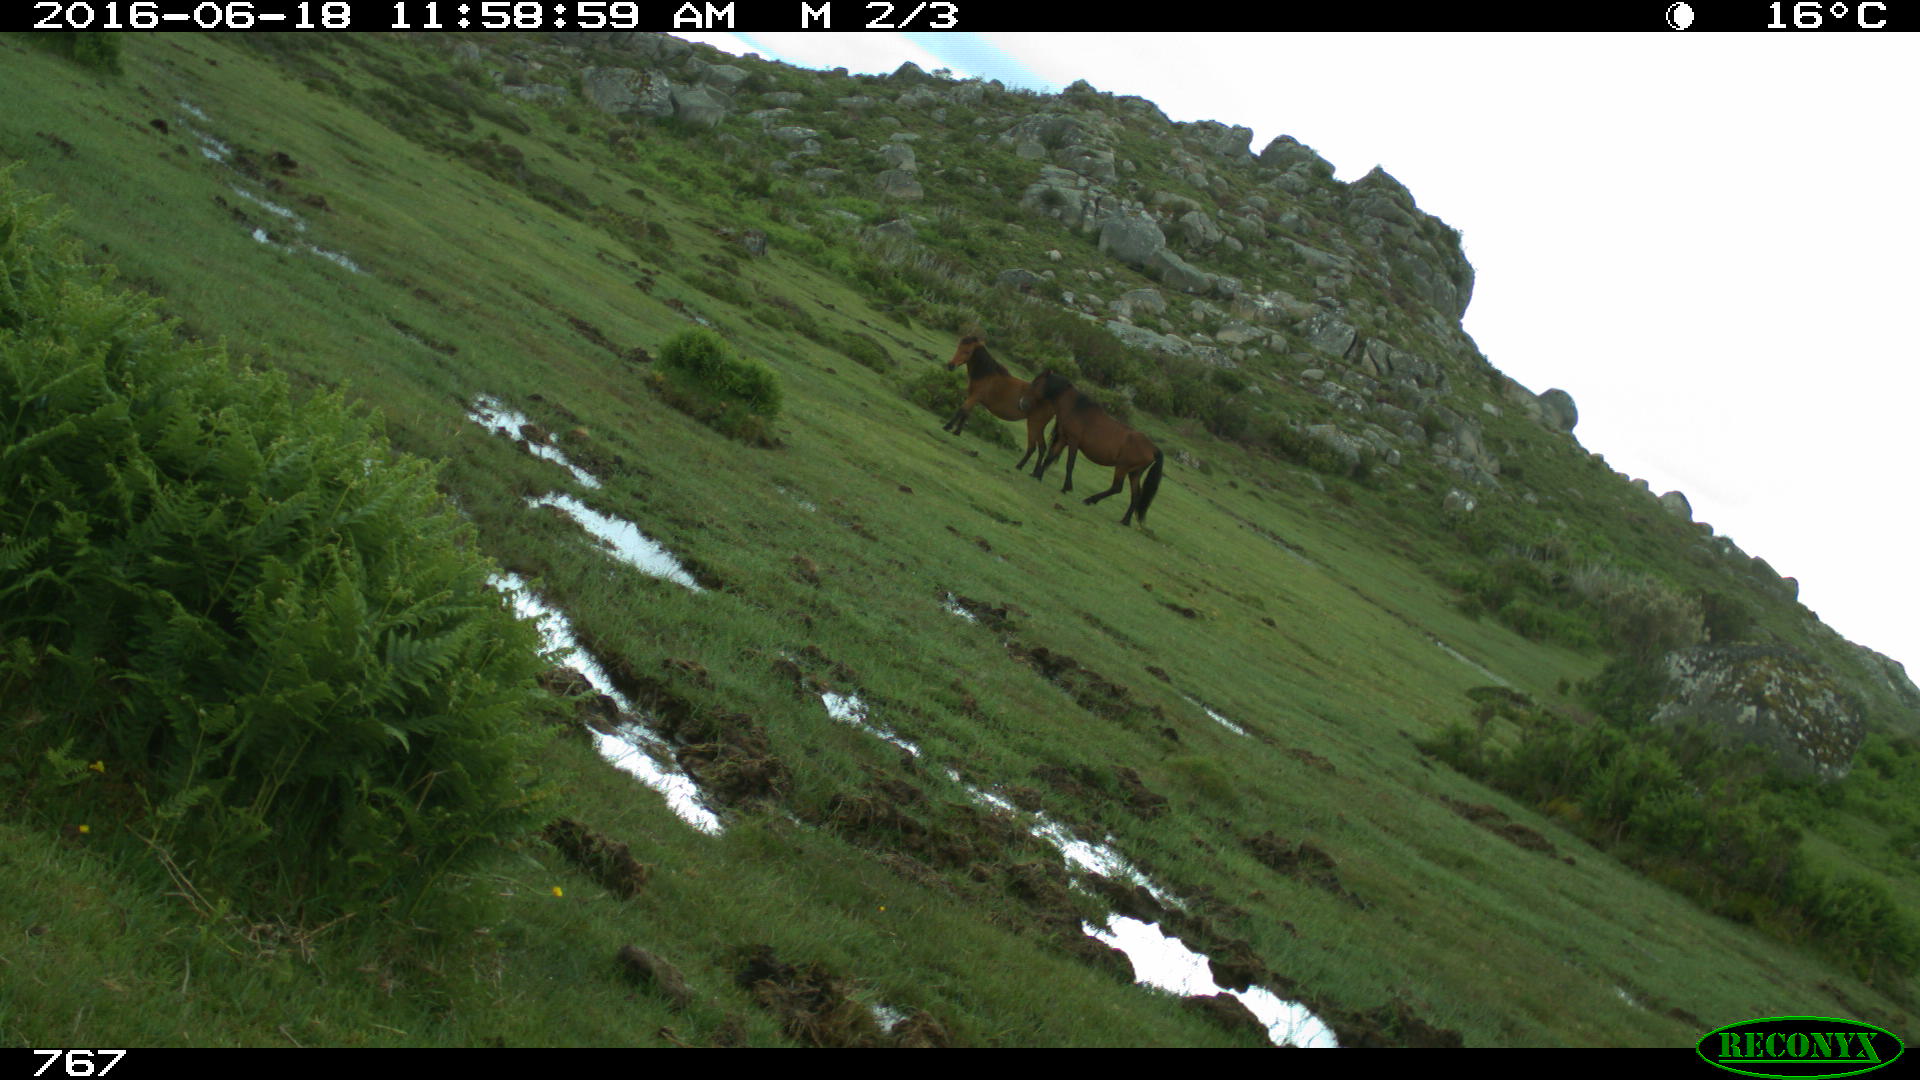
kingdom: Animalia
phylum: Chordata
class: Mammalia
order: Perissodactyla
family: Equidae
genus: Equus
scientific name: Equus caballus
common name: Horse
